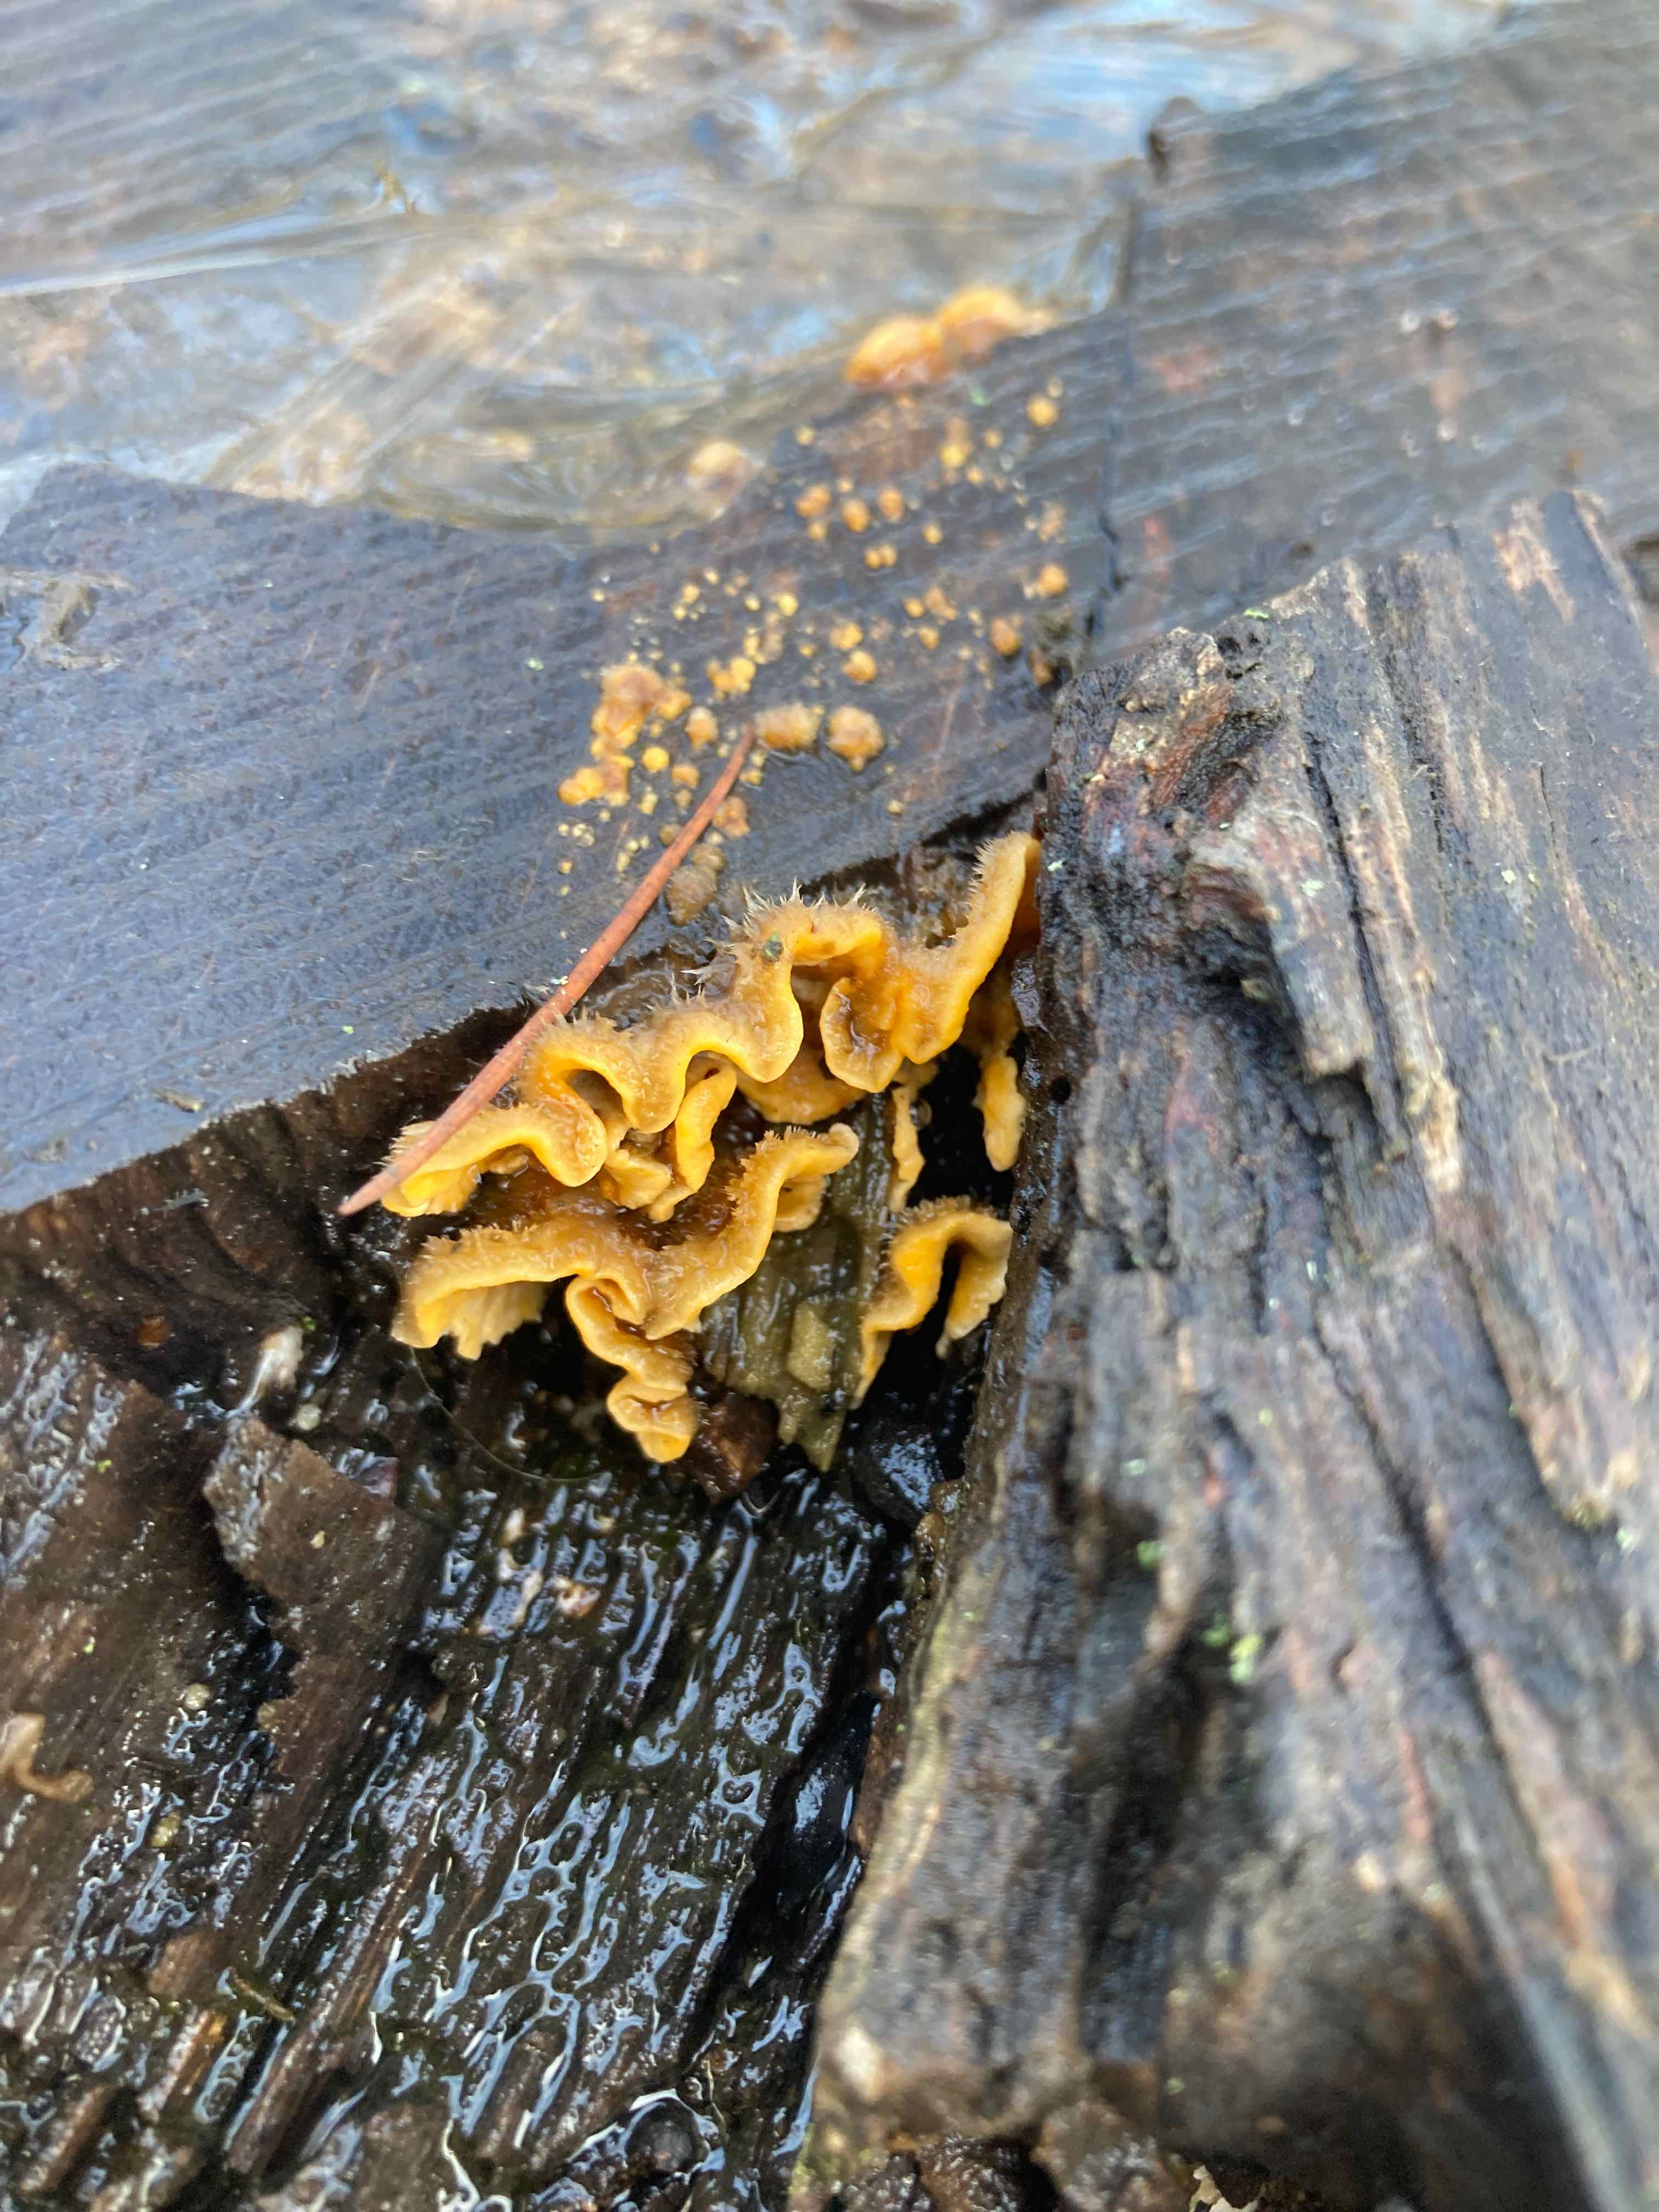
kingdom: Fungi
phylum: Basidiomycota
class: Agaricomycetes
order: Russulales
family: Stereaceae
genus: Stereum
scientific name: Stereum hirsutum
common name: håret lædersvamp
